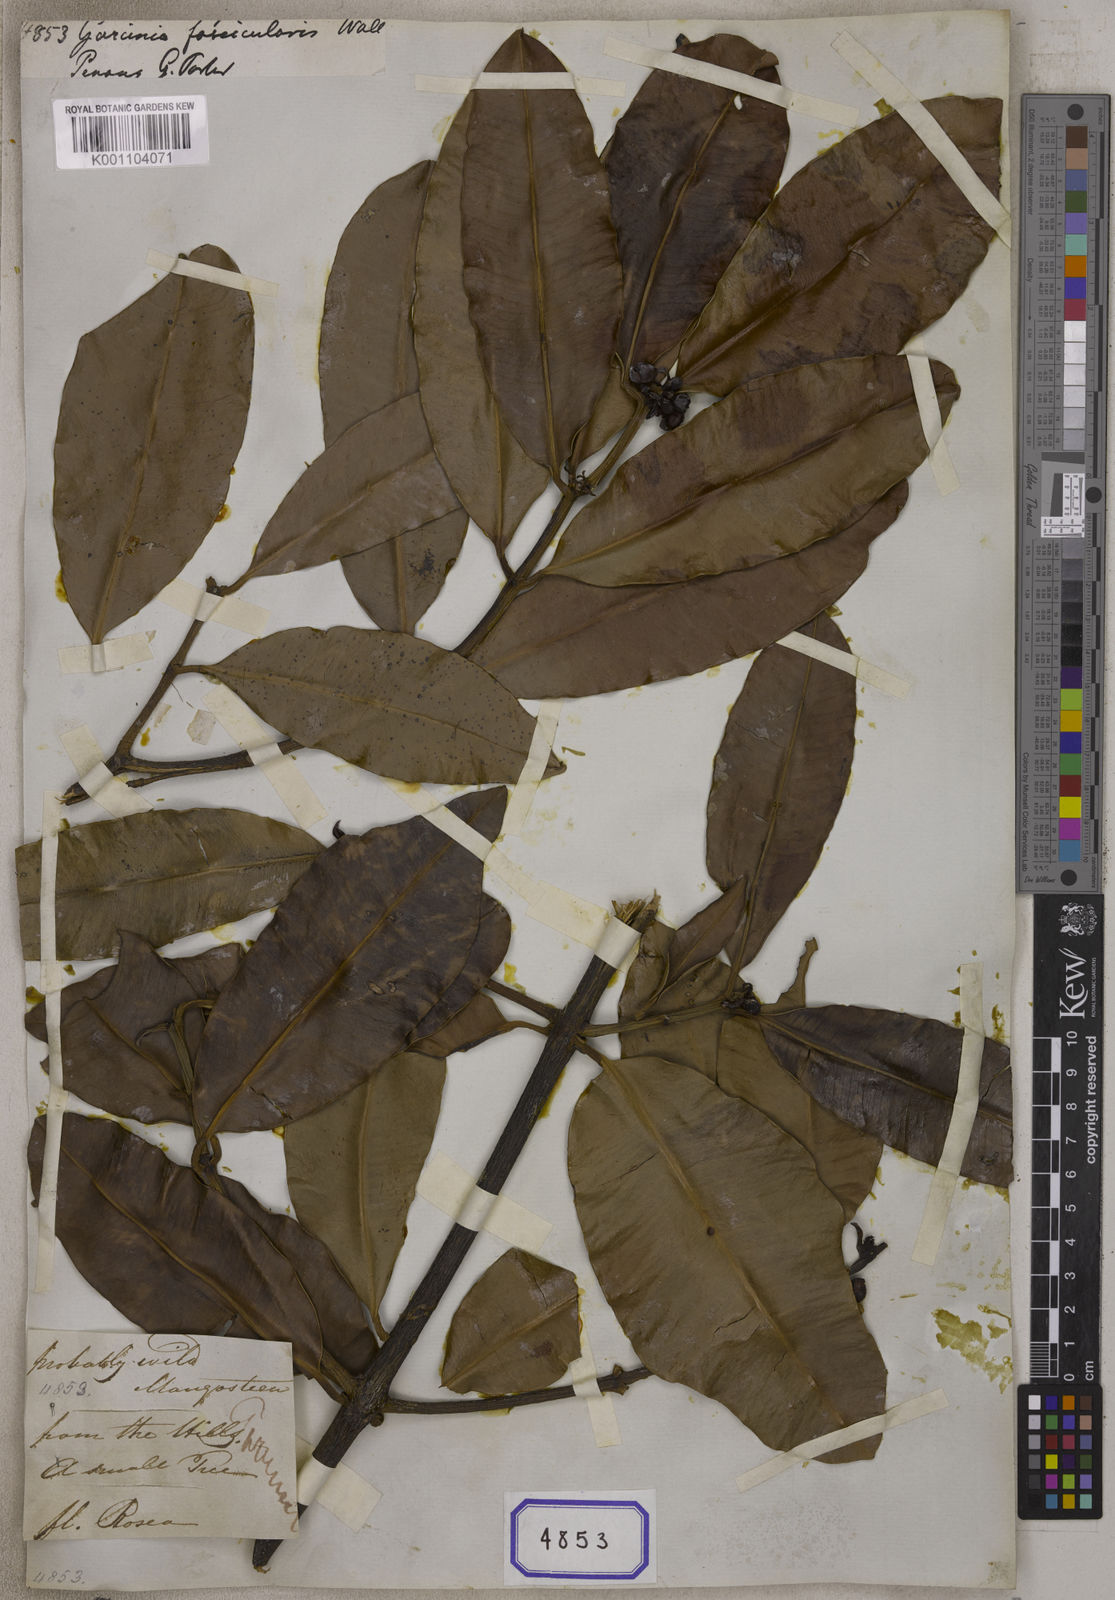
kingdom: Plantae
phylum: Tracheophyta
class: Magnoliopsida
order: Malpighiales
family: Clusiaceae
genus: Garcinia
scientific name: Garcinia
